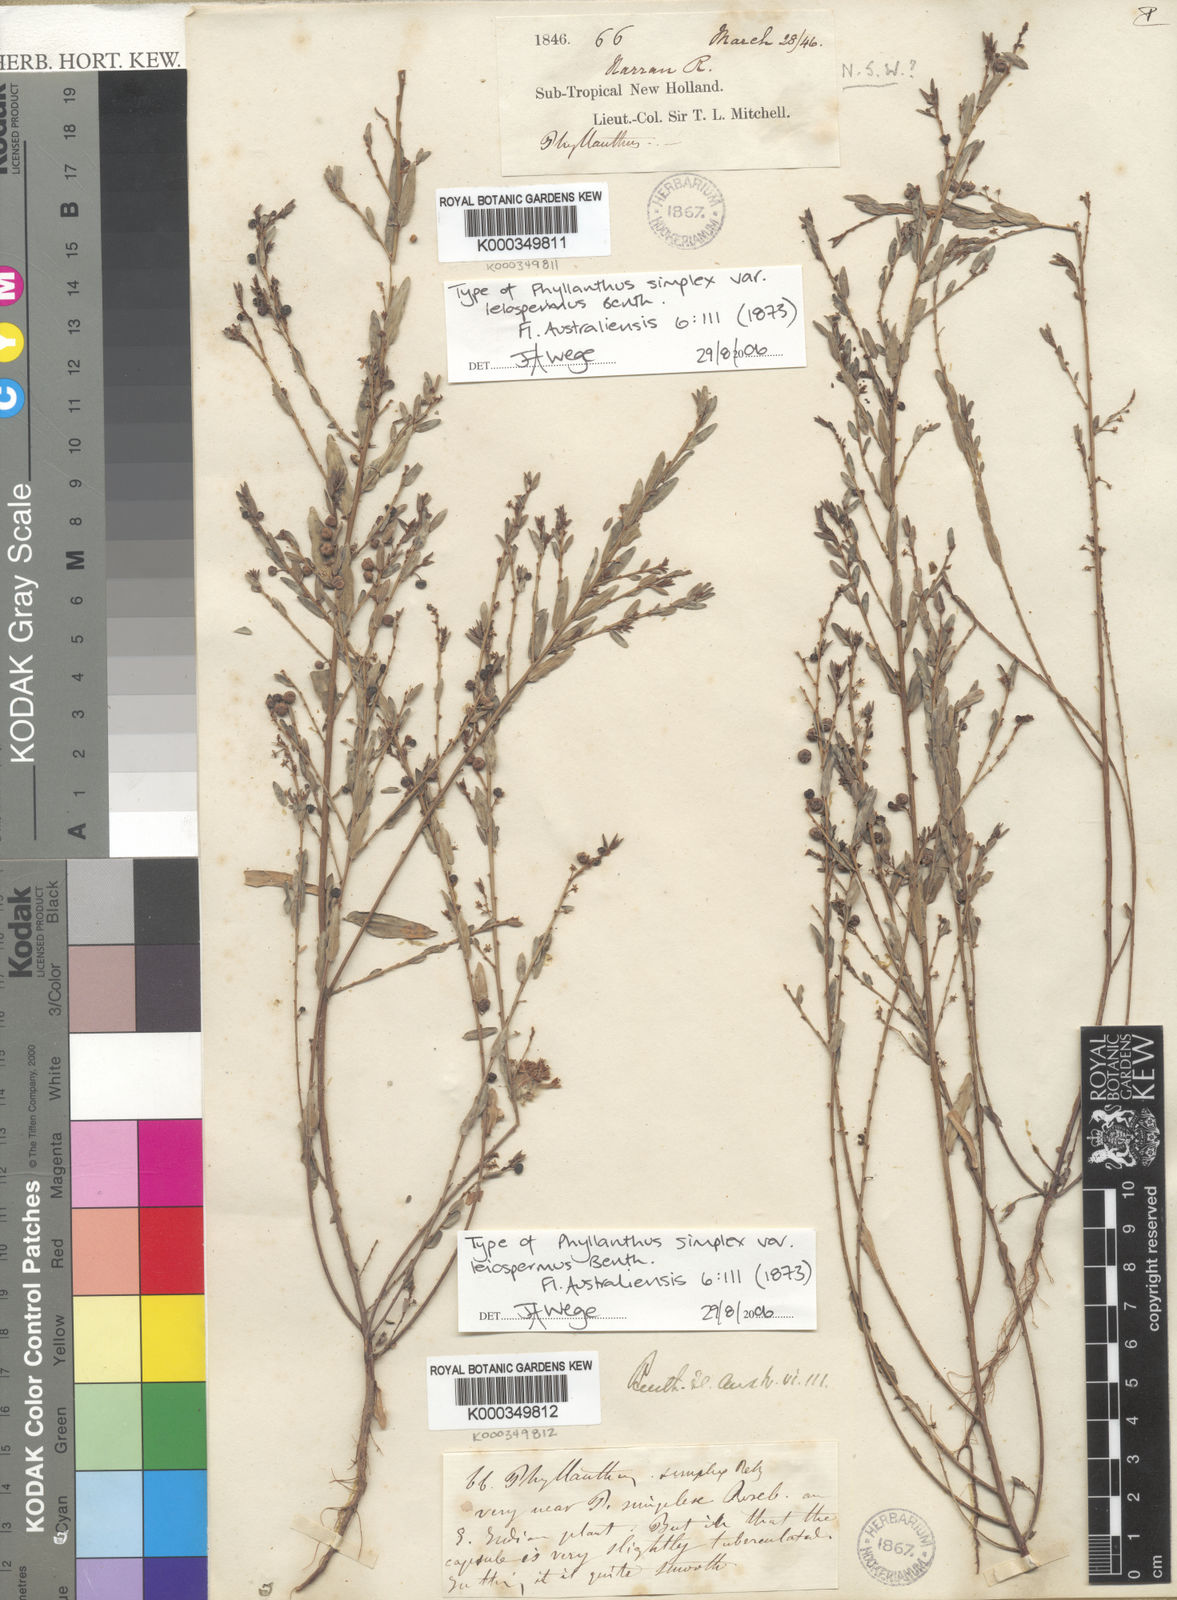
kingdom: Plantae
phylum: Tracheophyta
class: Magnoliopsida
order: Malpighiales
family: Phyllanthaceae
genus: Phyllanthus
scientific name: Phyllanthus virgatus
